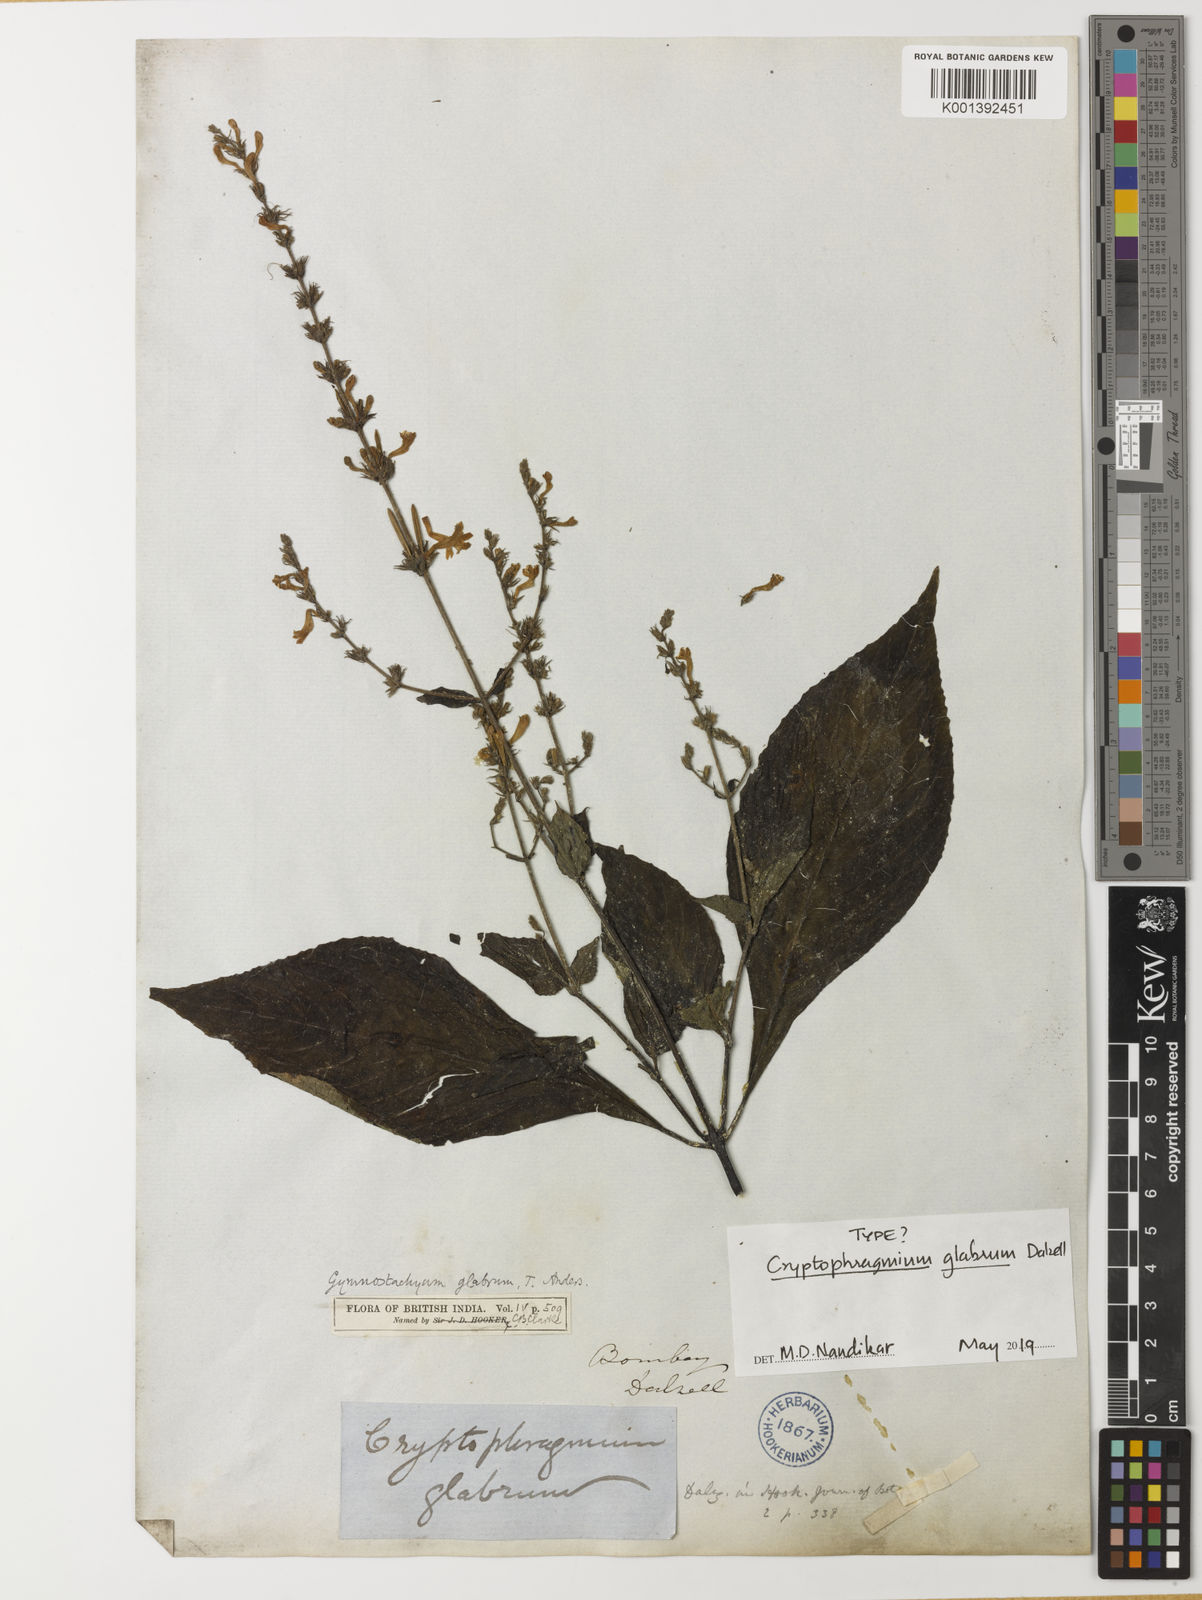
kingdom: Plantae
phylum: Tracheophyta
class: Magnoliopsida
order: Lamiales
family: Acanthaceae
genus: Gymnostachyum
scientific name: Gymnostachyum glabrum
